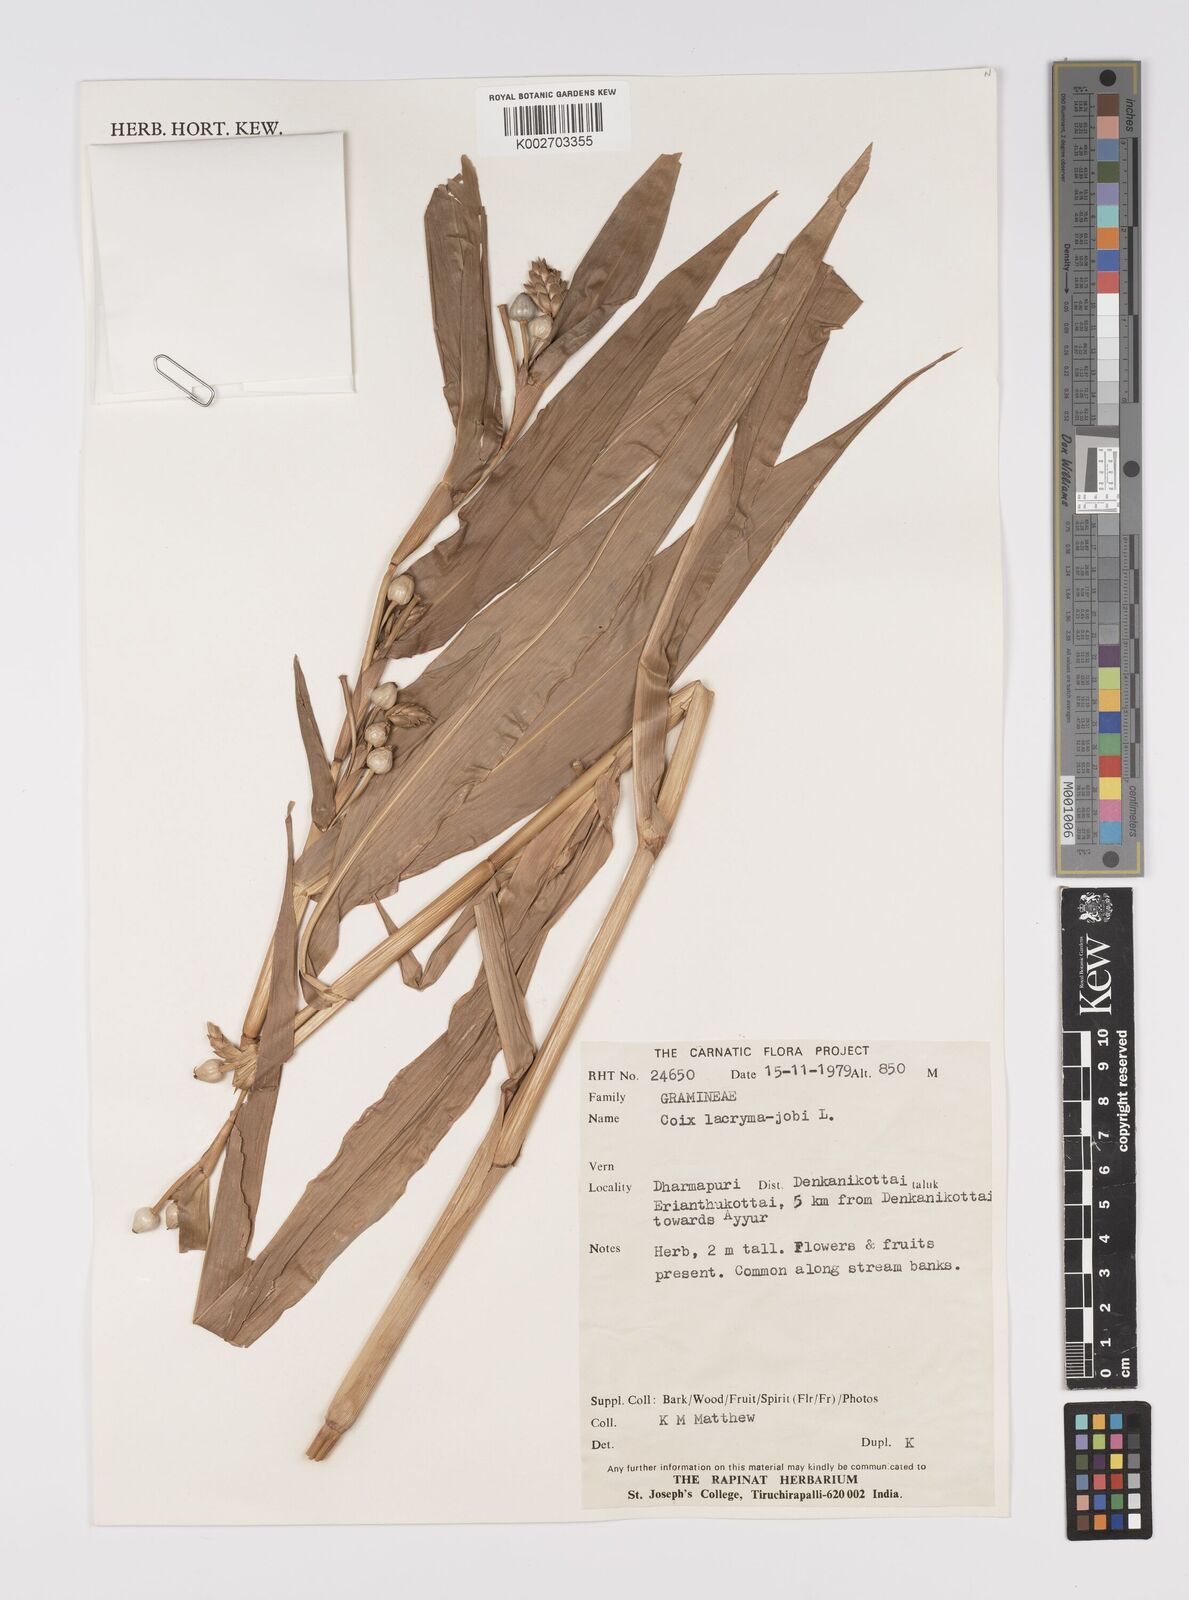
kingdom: Plantae
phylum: Tracheophyta
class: Liliopsida
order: Poales
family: Poaceae
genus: Coix
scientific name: Coix lacryma-jobi
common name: Job's tears
